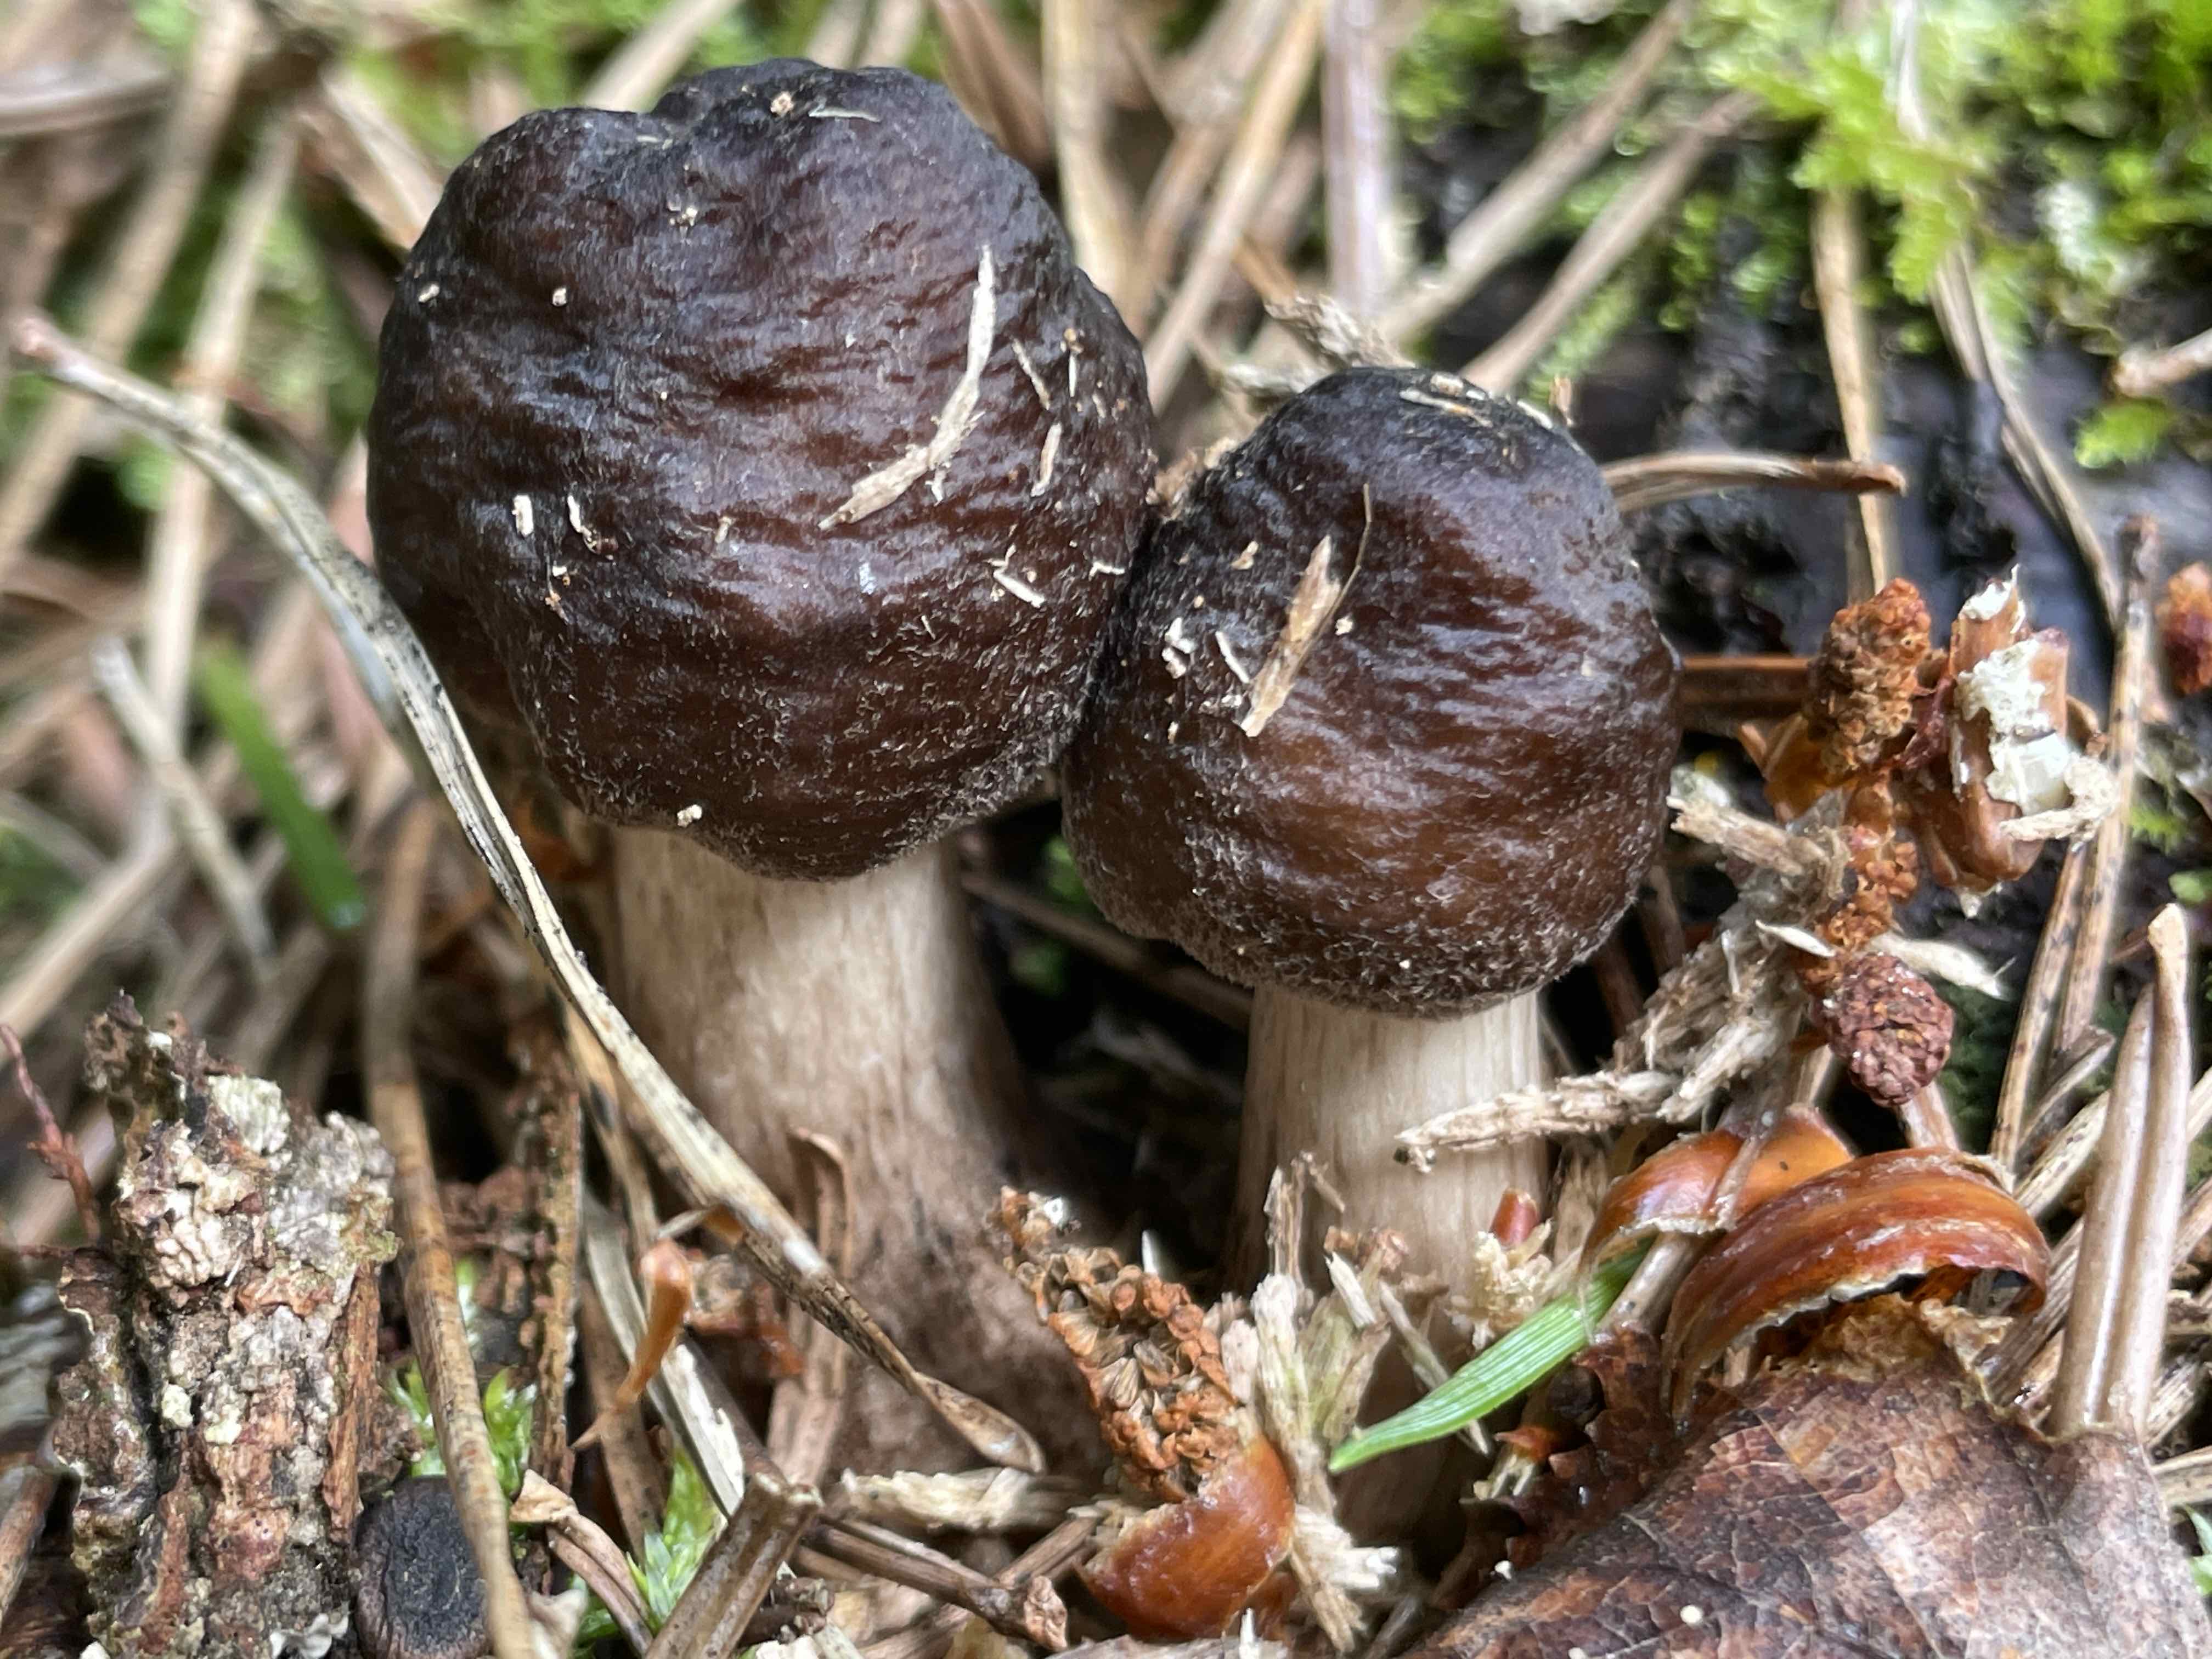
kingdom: Fungi
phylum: Basidiomycota
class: Agaricomycetes
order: Agaricales
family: Pluteaceae
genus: Pluteus
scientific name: Pluteus
